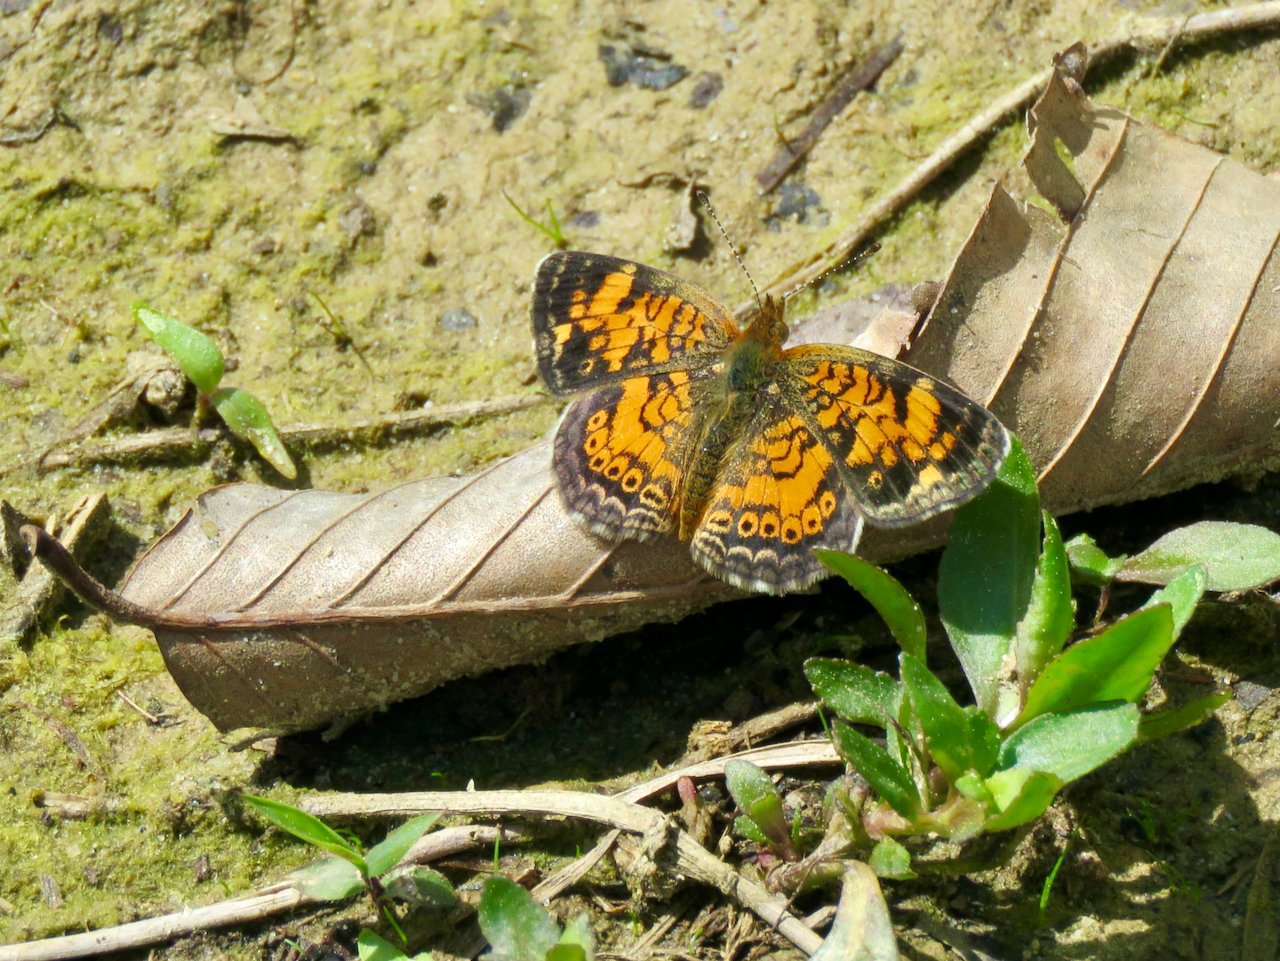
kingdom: Animalia
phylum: Arthropoda
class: Insecta
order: Lepidoptera
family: Nymphalidae
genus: Phyciodes
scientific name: Phyciodes tharos
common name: Pearl Crescent
